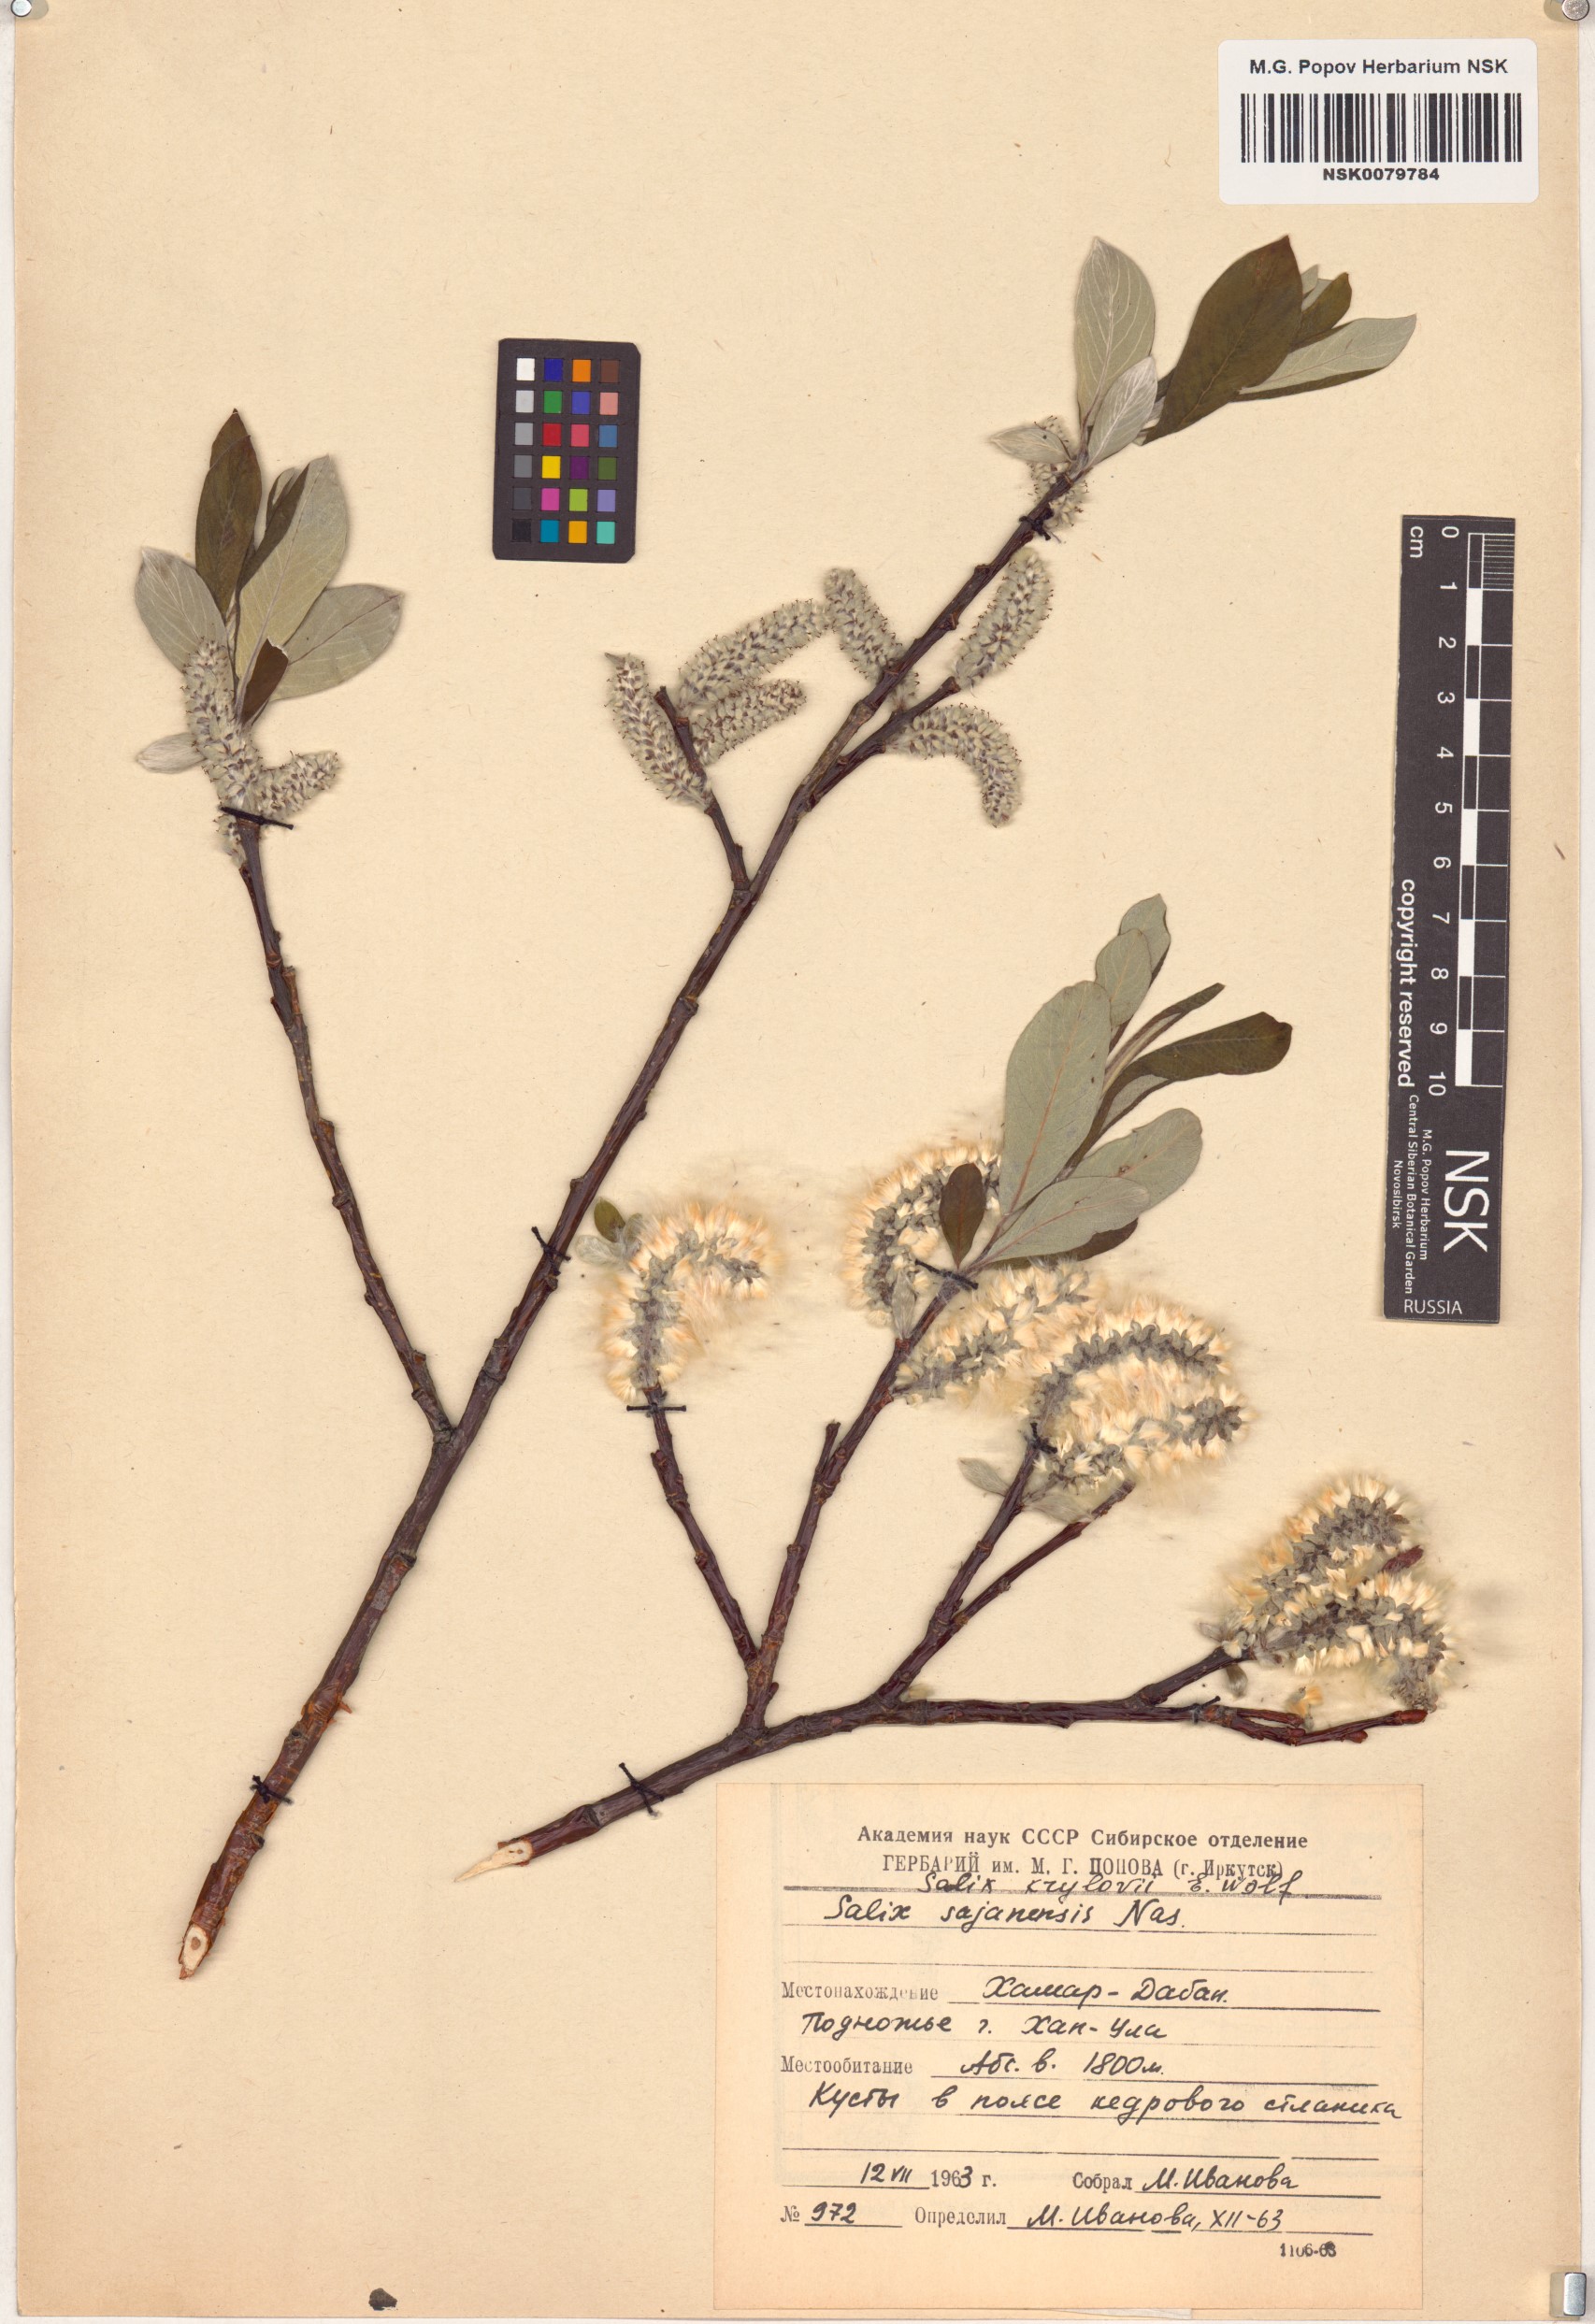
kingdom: Plantae
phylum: Tracheophyta
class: Magnoliopsida
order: Malpighiales
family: Salicaceae
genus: Salix
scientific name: Salix krylovii
